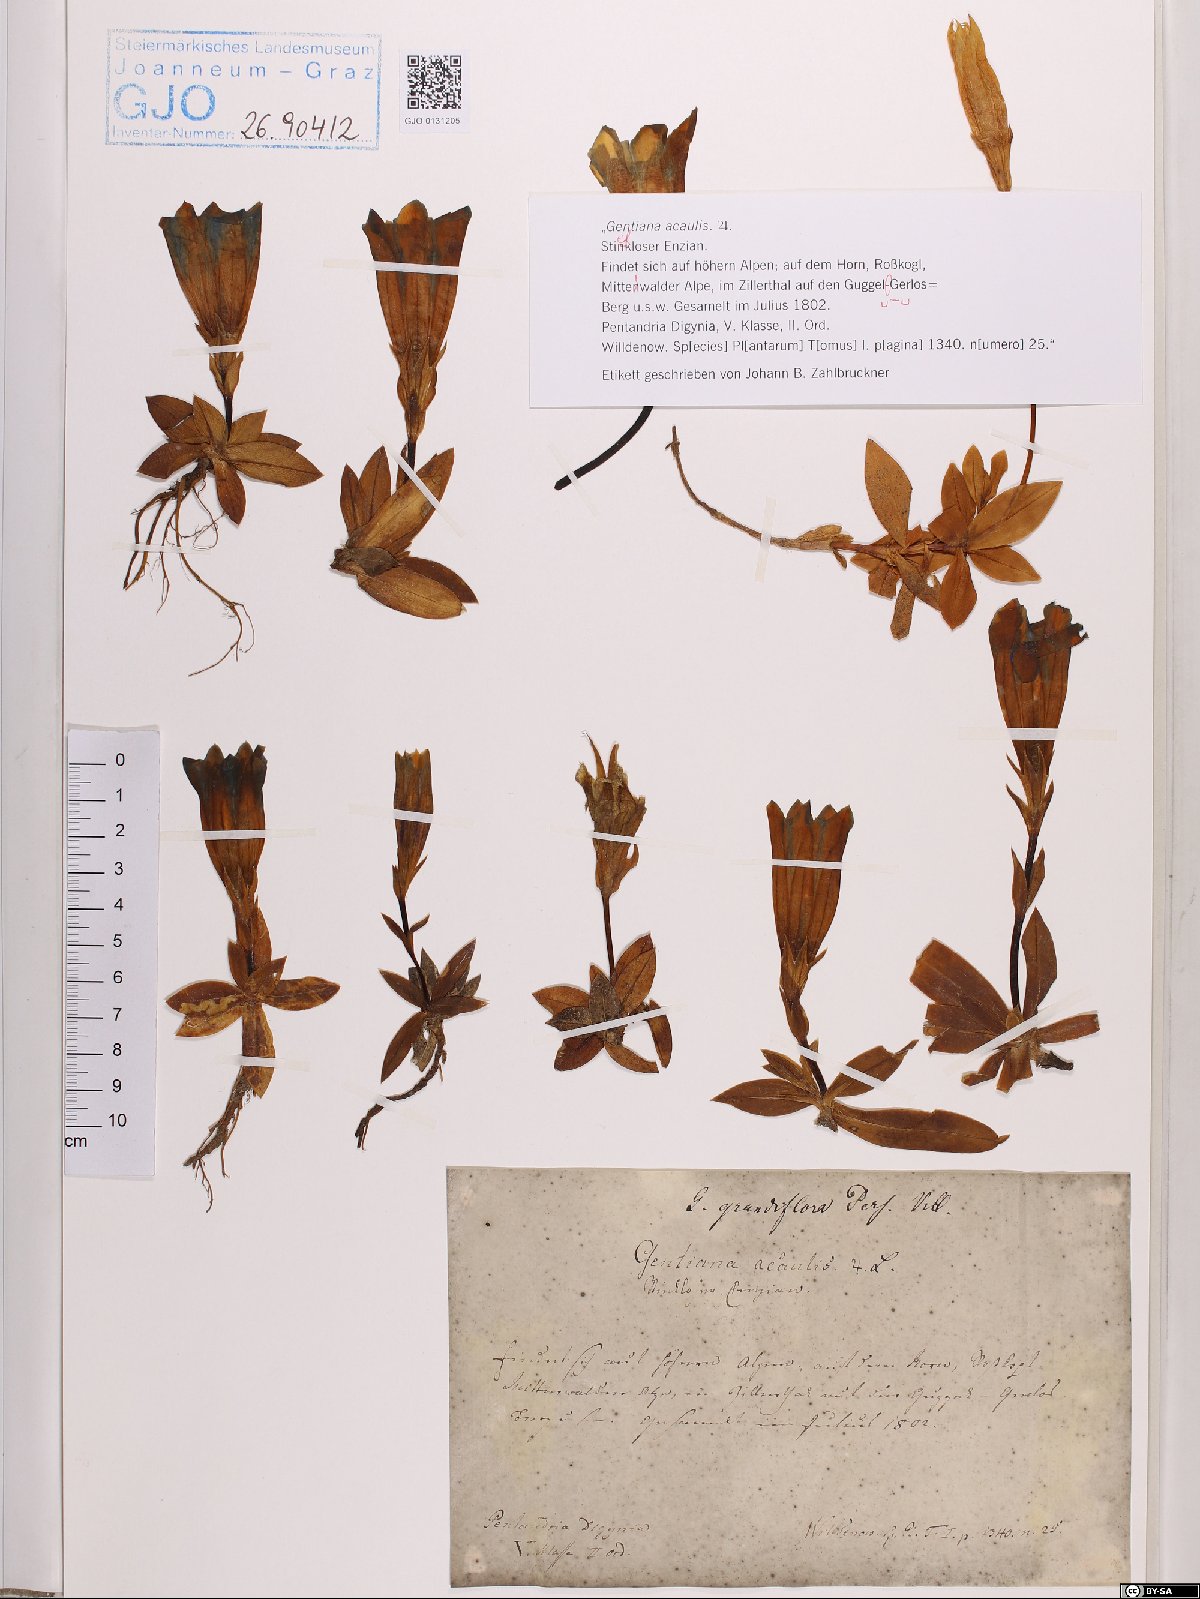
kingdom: Plantae
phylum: Tracheophyta
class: Magnoliopsida
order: Gentianales
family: Gentianaceae
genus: Gentiana
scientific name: Gentiana acaulis
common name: Trumpet gentian
